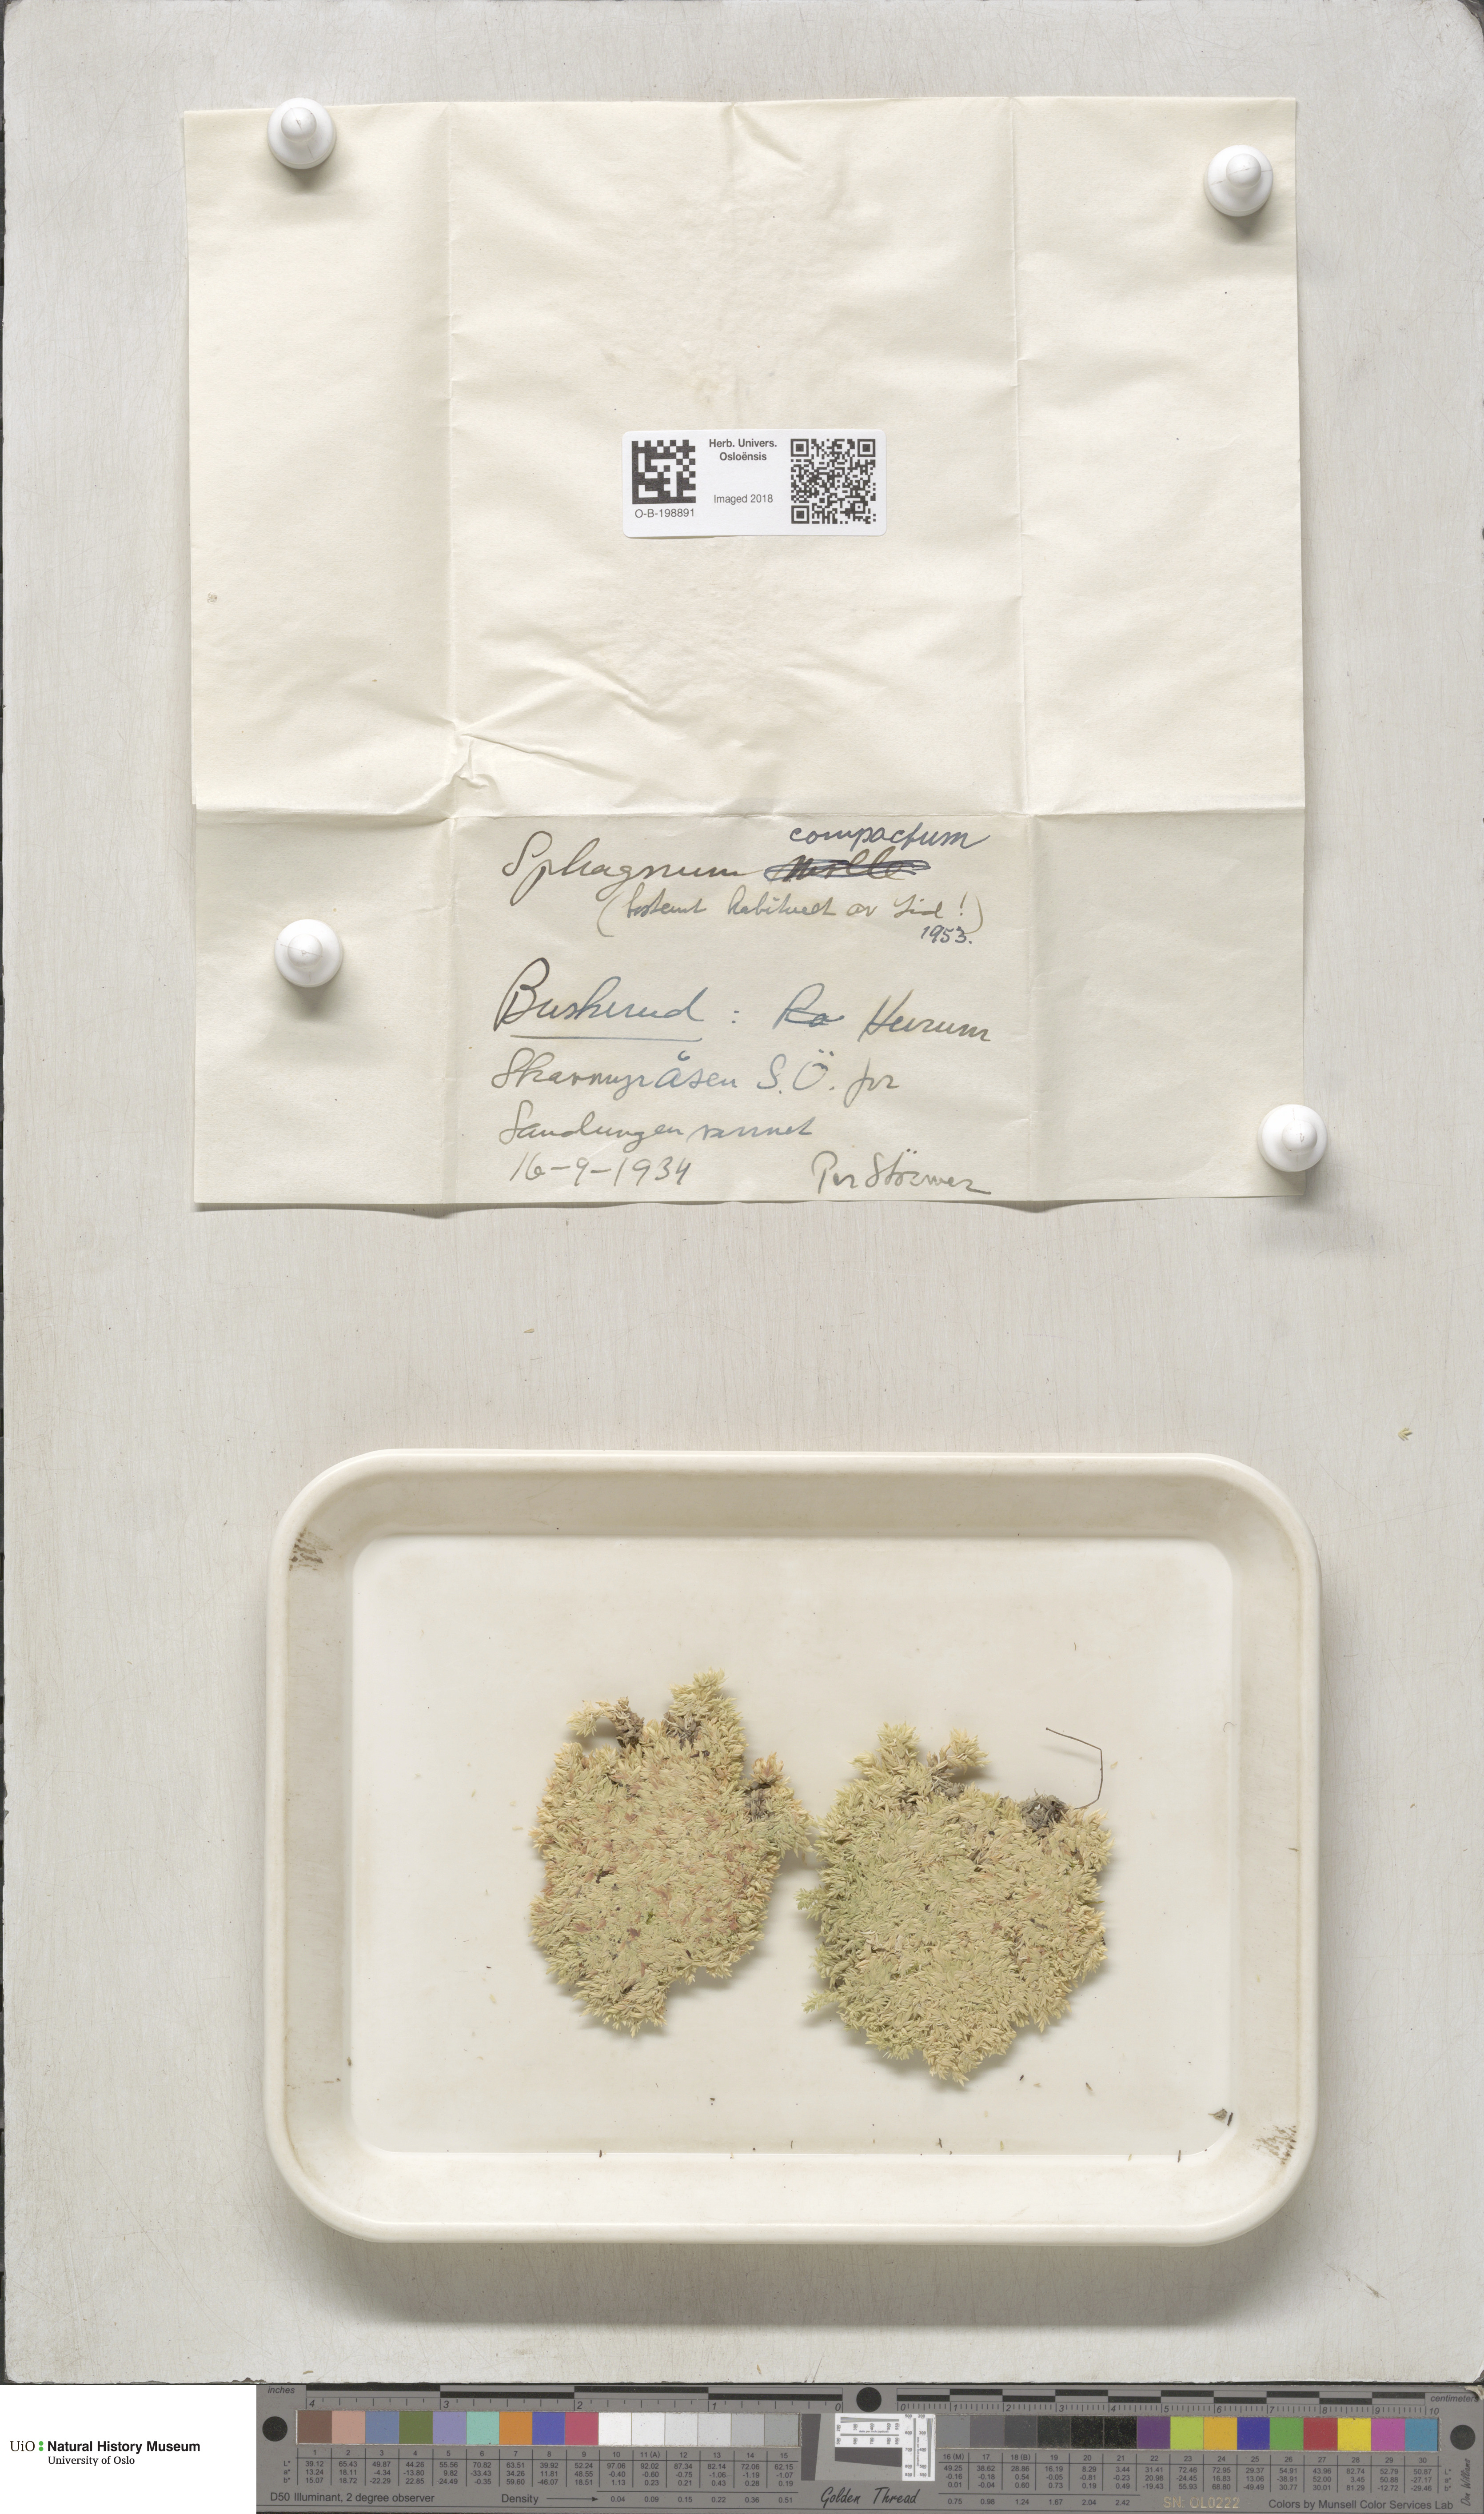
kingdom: Plantae
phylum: Bryophyta
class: Sphagnopsida
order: Sphagnales
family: Sphagnaceae
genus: Sphagnum
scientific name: Sphagnum compactum
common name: Compact peat moss
